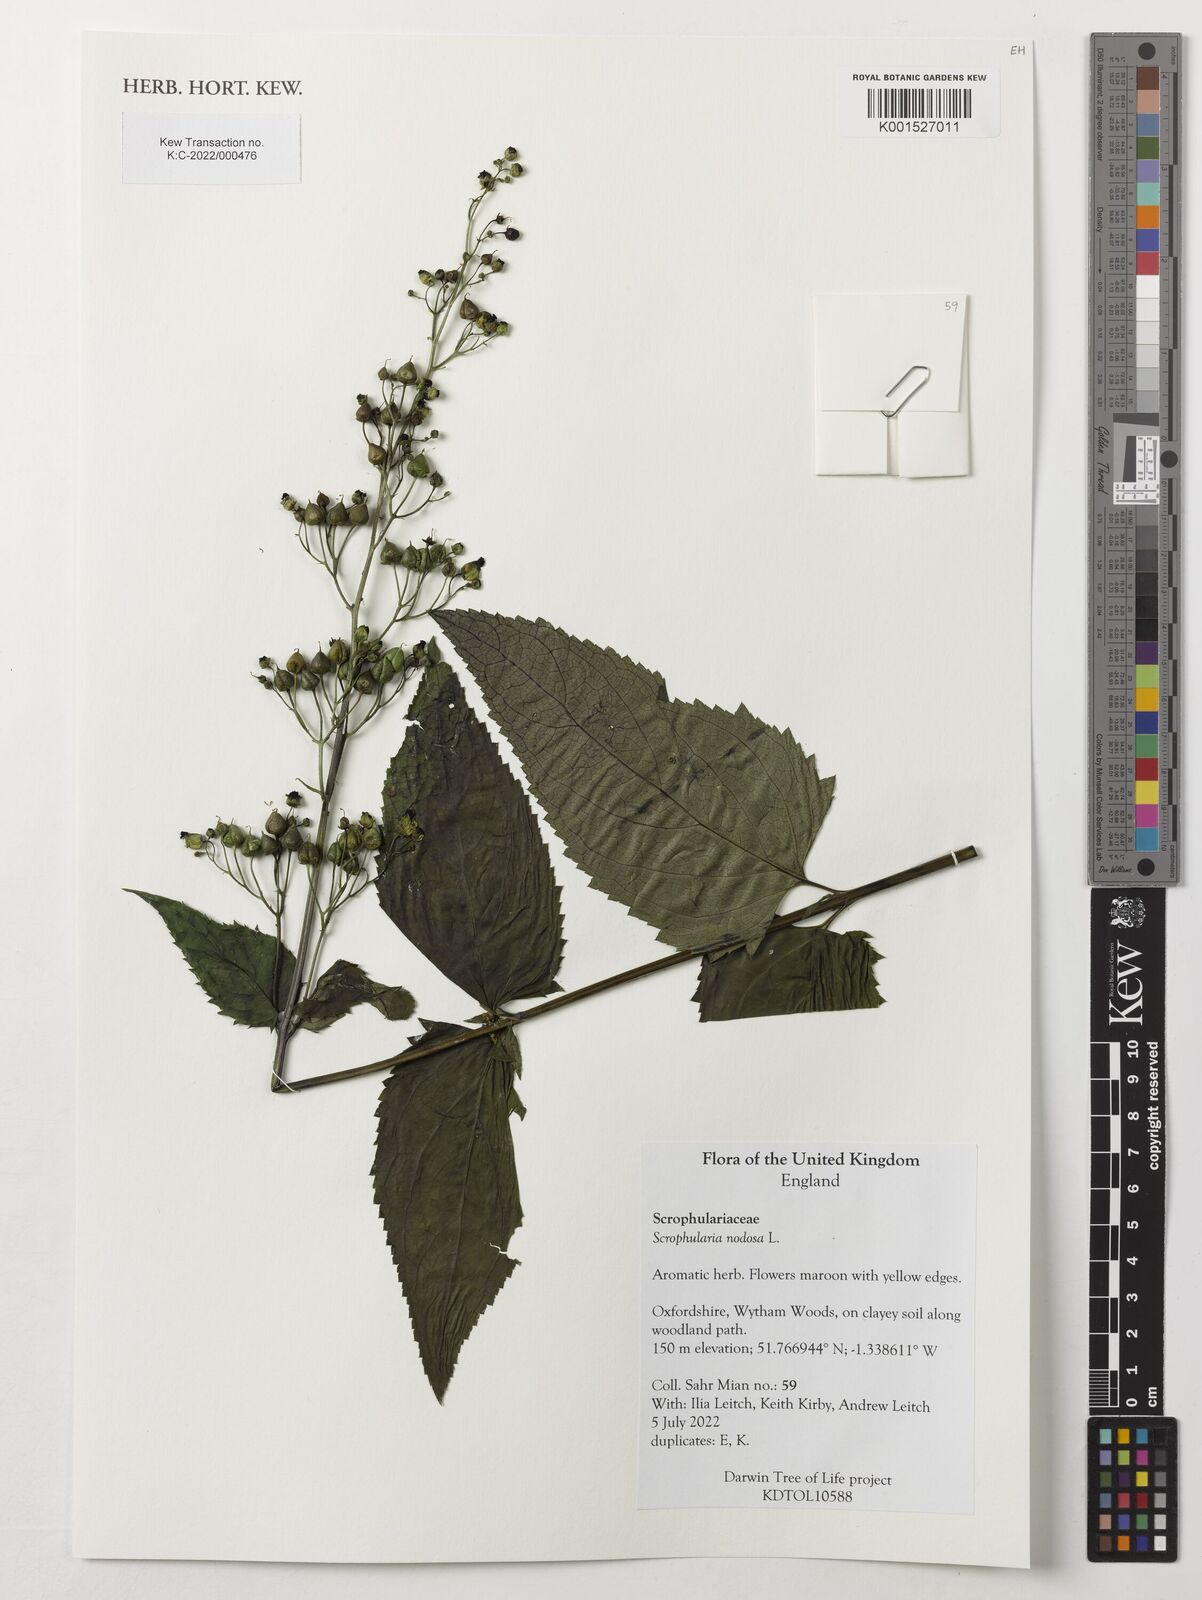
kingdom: Plantae
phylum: Tracheophyta
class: Magnoliopsida
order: Lamiales
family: Scrophulariaceae
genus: Scrophularia
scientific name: Scrophularia nodosa
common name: Common figwort
